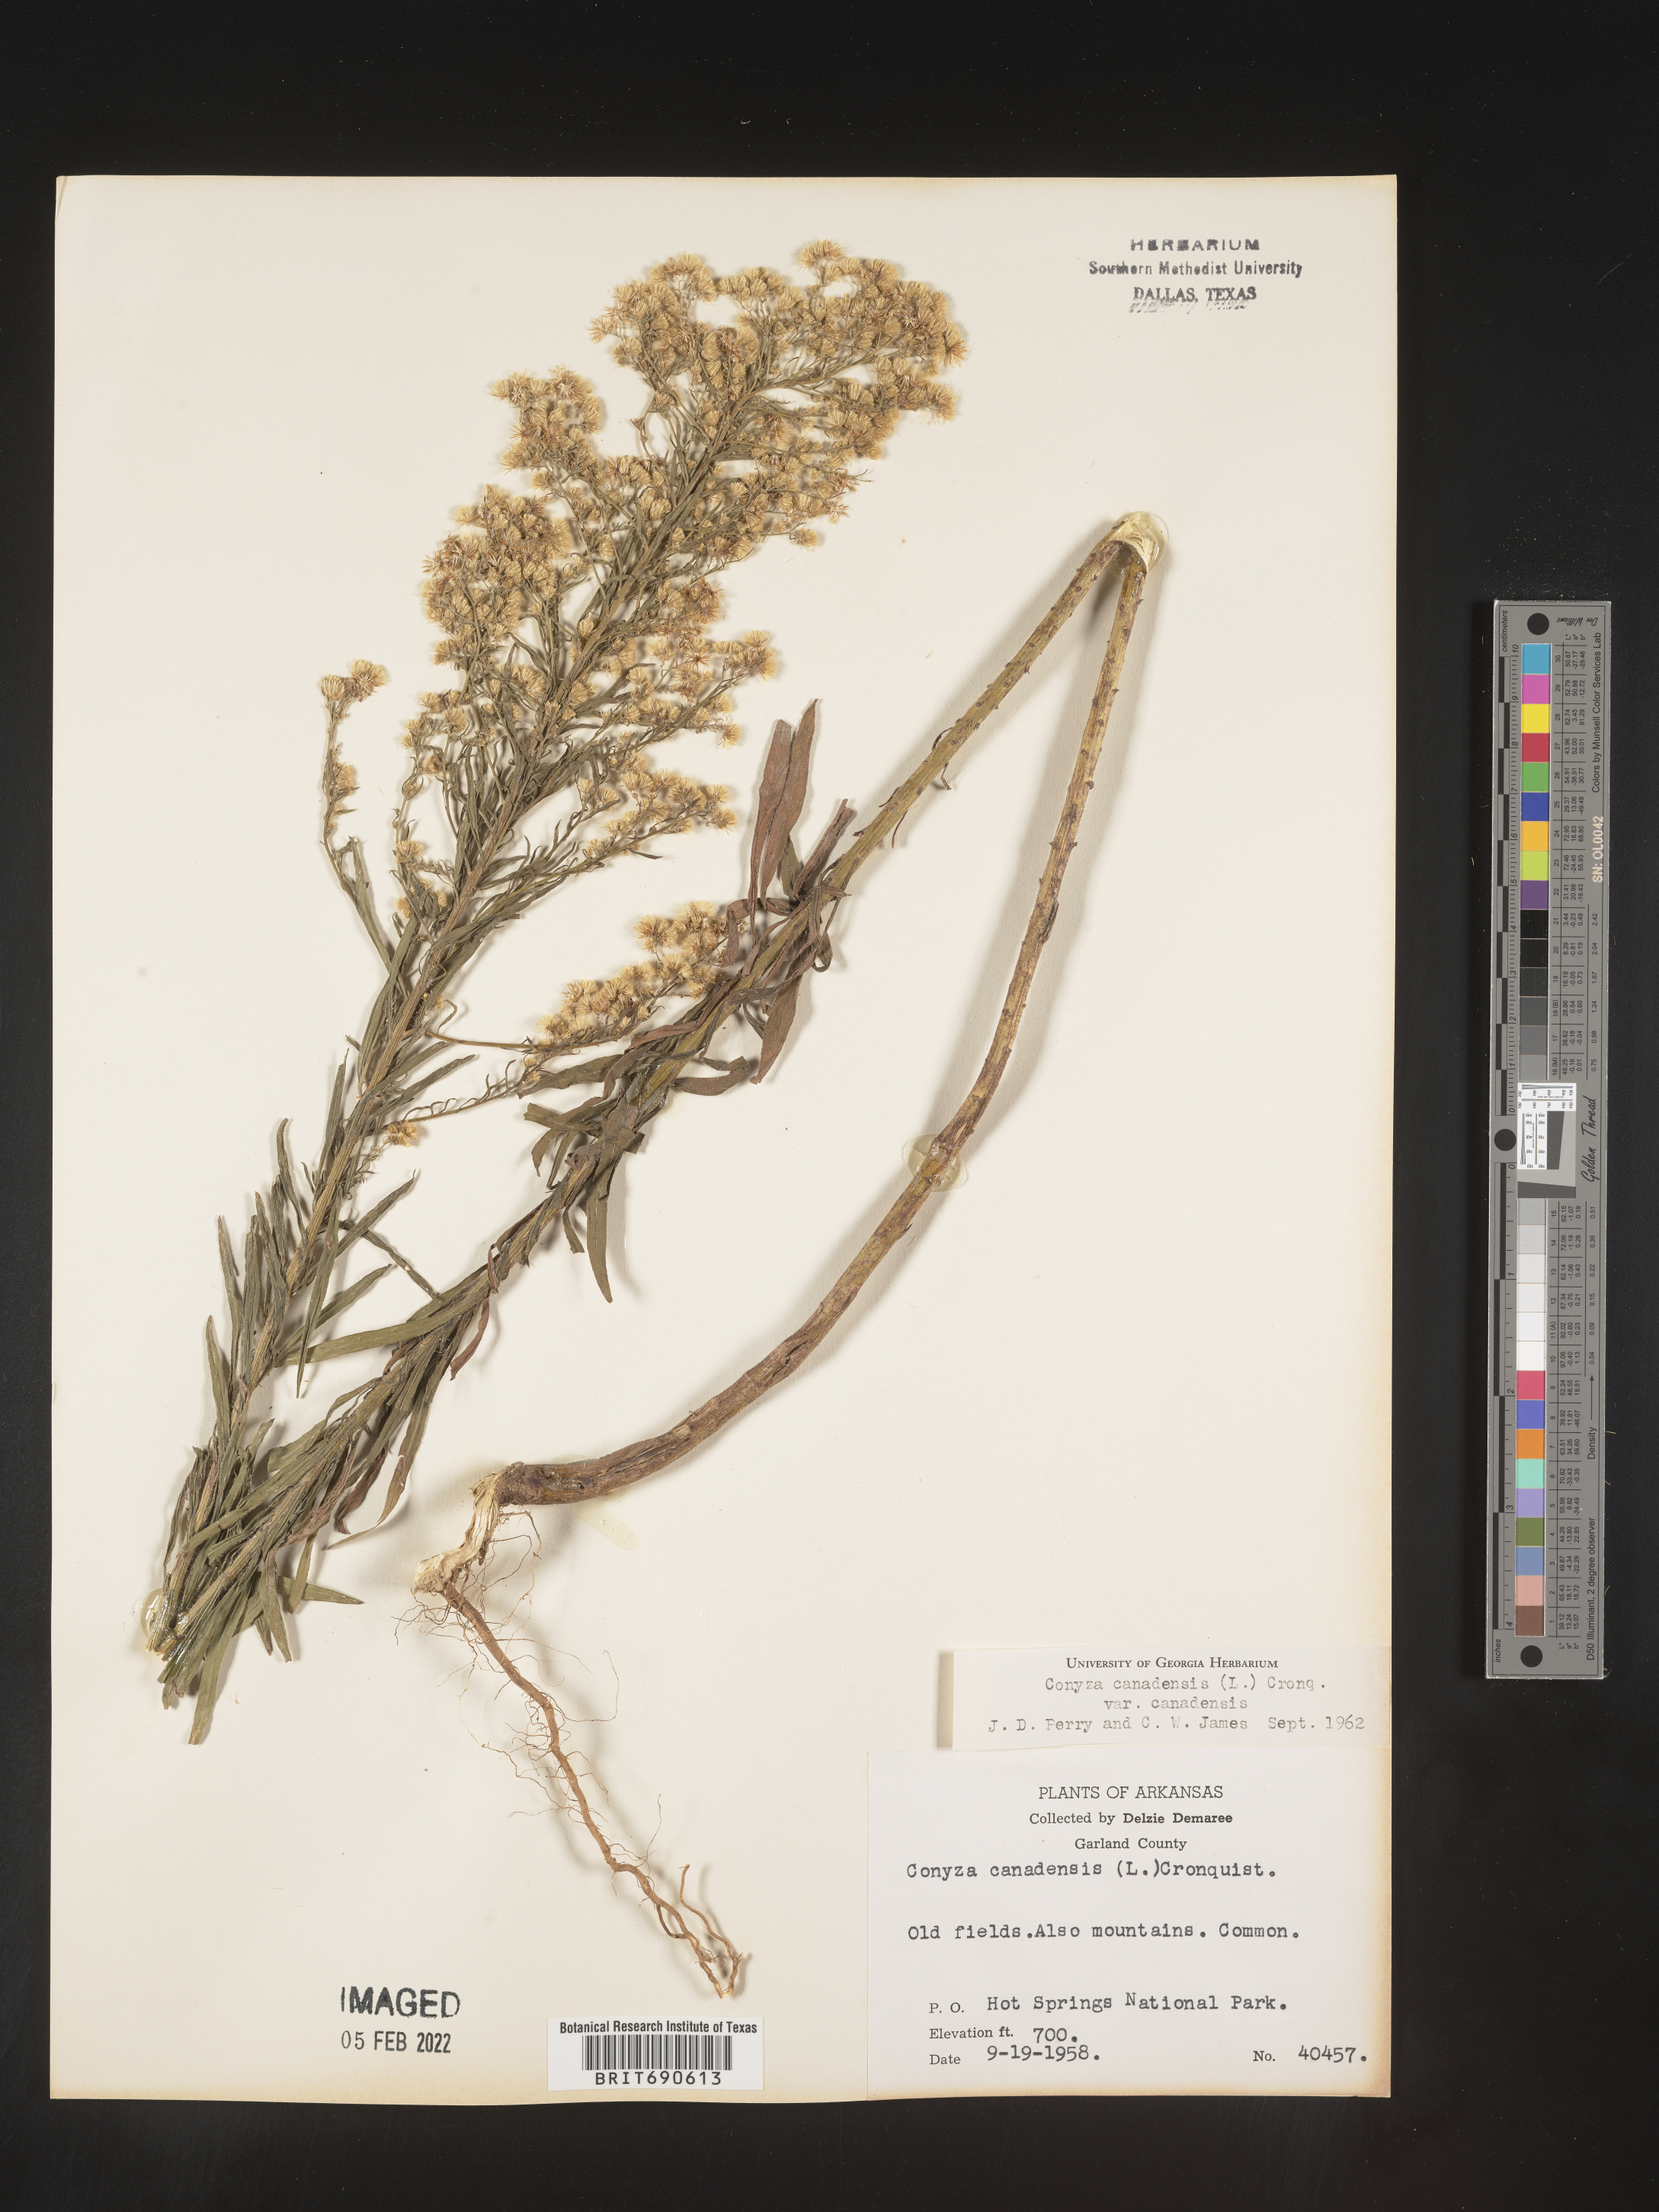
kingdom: Plantae
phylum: Tracheophyta
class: Magnoliopsida
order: Asterales
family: Asteraceae
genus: Erigeron
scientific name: Erigeron canadensis
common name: Canadian fleabane
